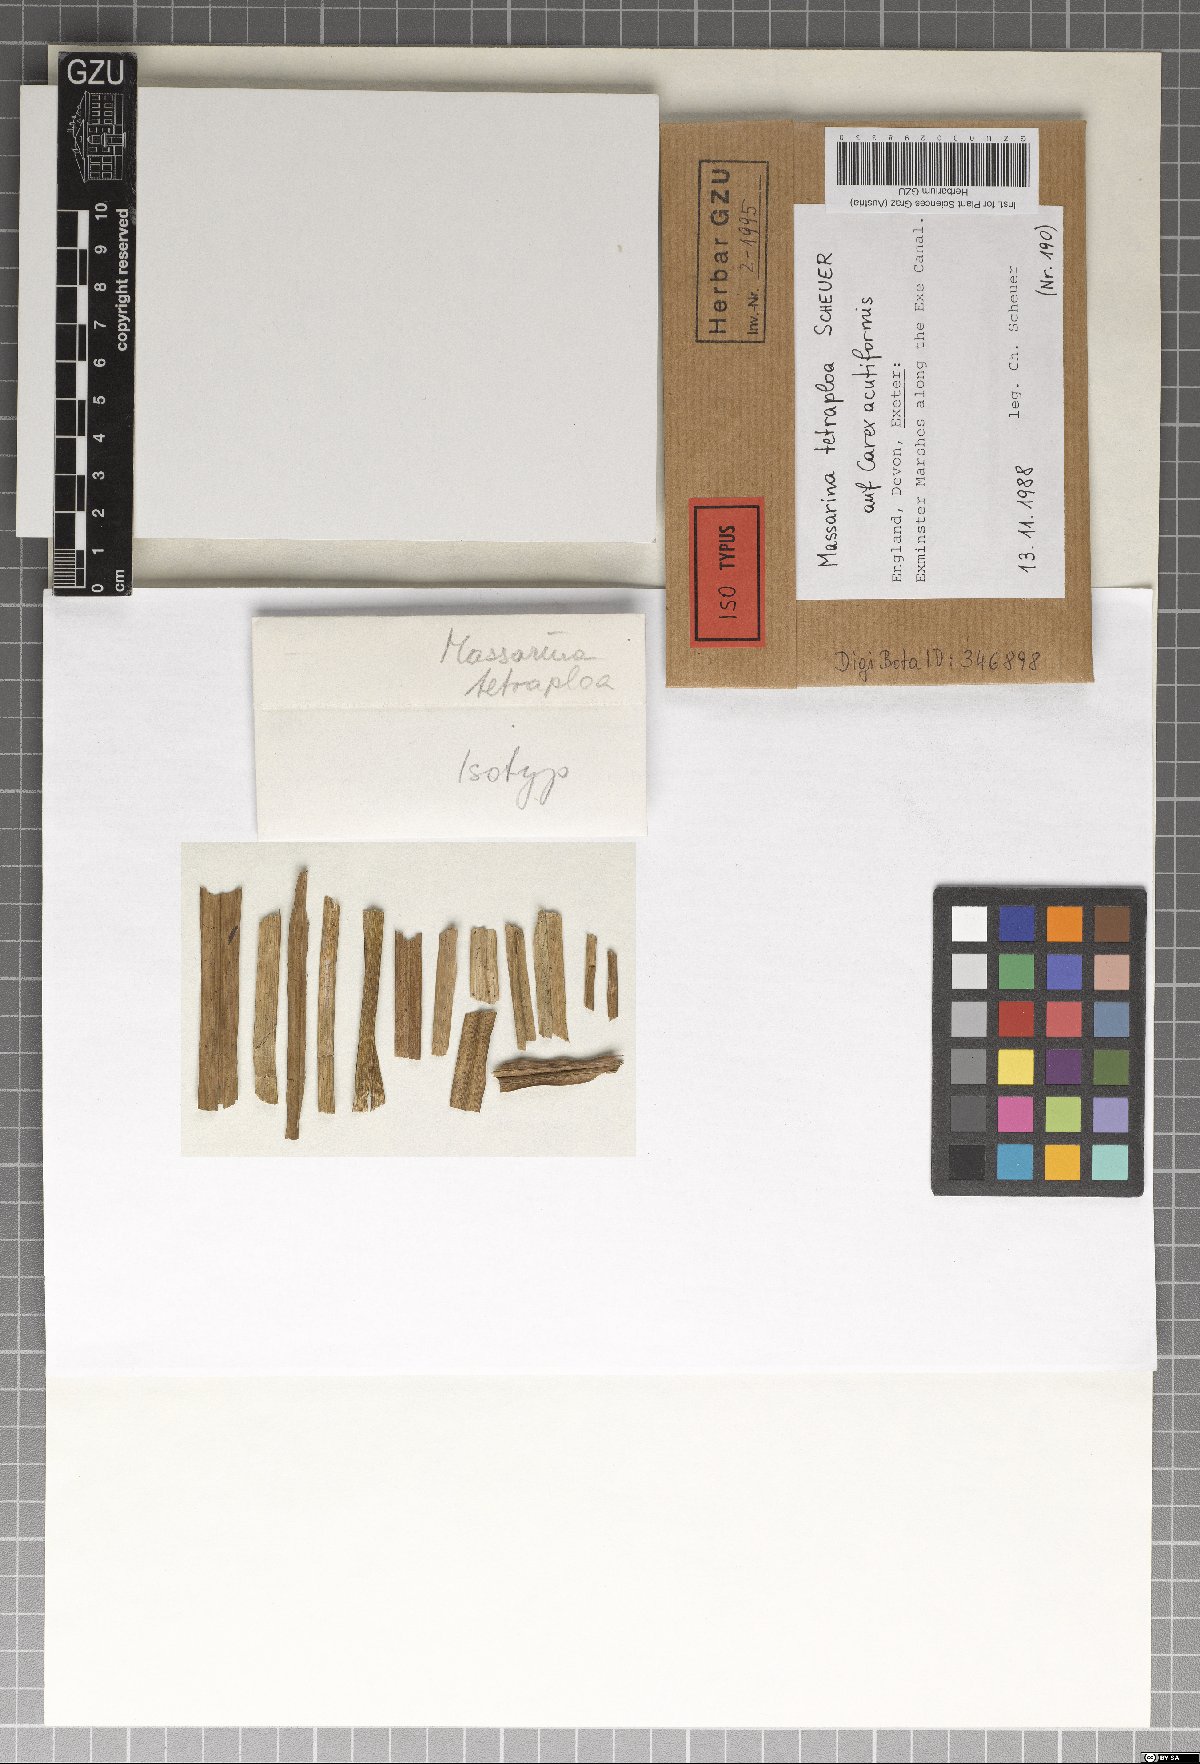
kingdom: Fungi
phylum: Ascomycota
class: Dothideomycetes
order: Pleosporales
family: Tetraplosphaeriaceae
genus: Tetraploa
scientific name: Tetraploa scheueri
